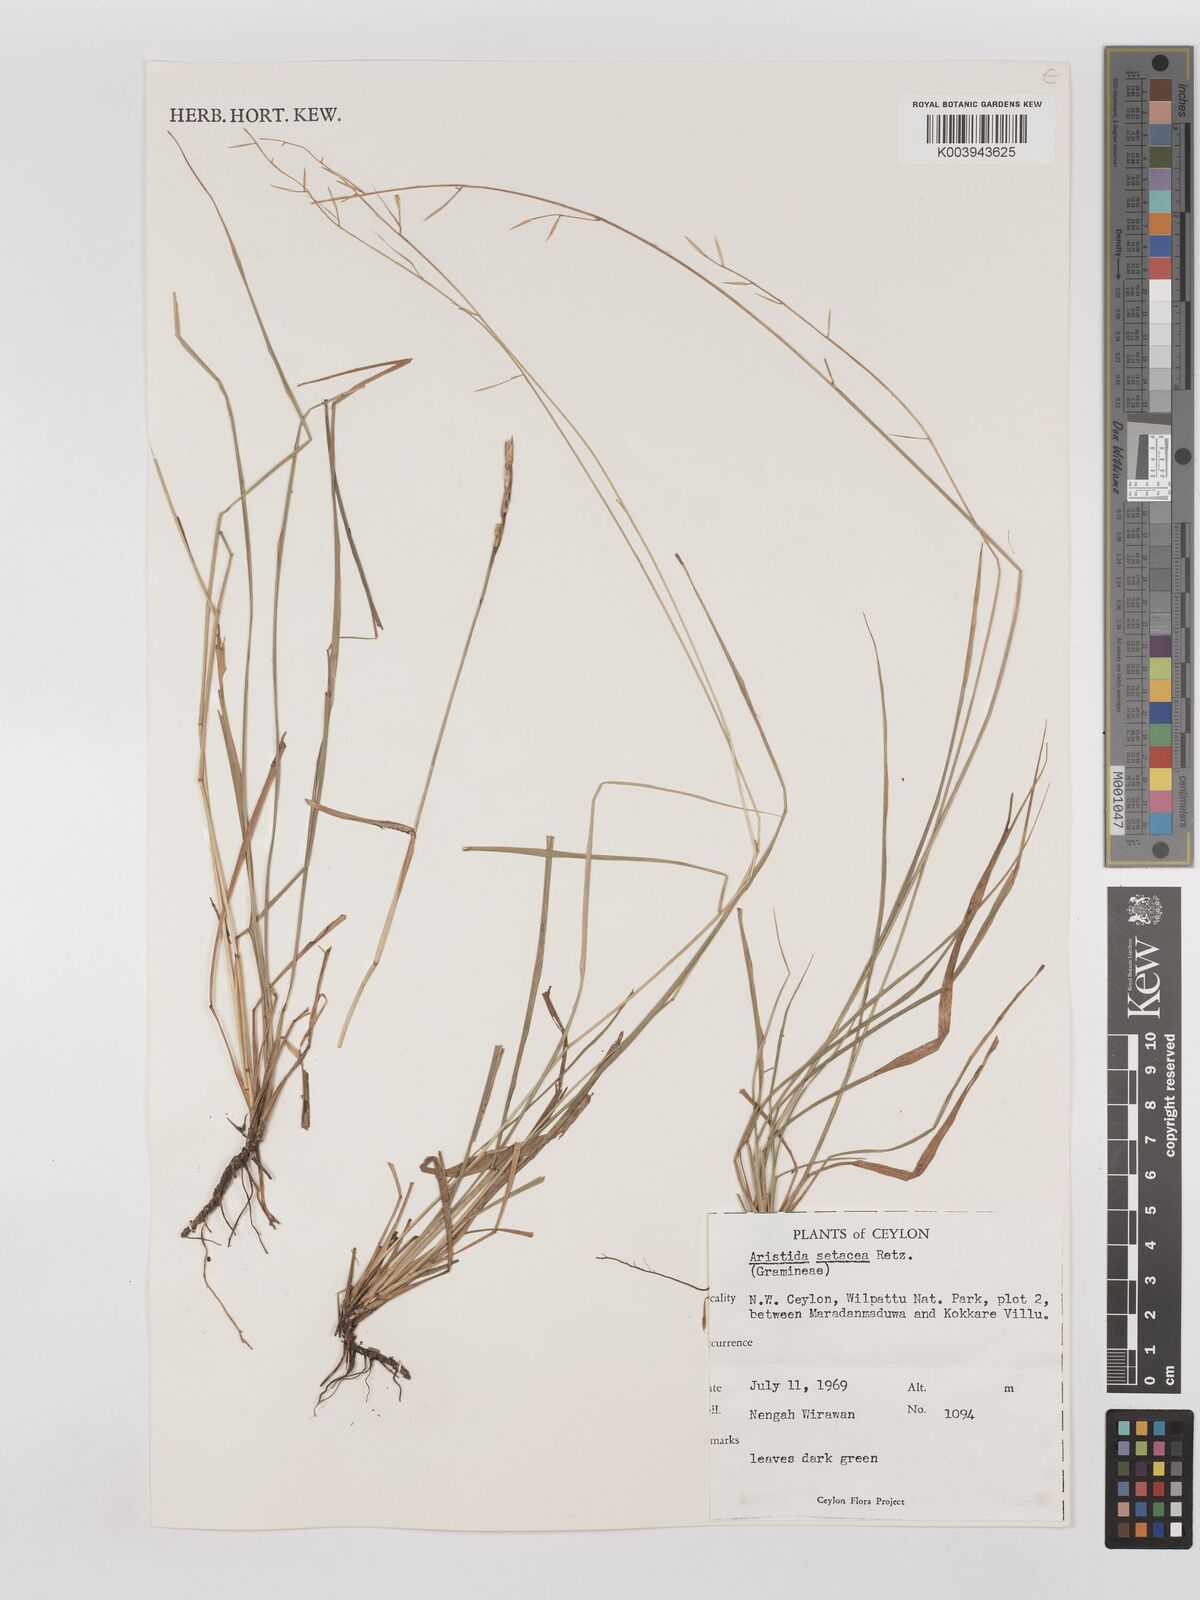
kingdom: Plantae
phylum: Tracheophyta
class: Liliopsida
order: Poales
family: Poaceae
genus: Aristida
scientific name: Aristida setacea
